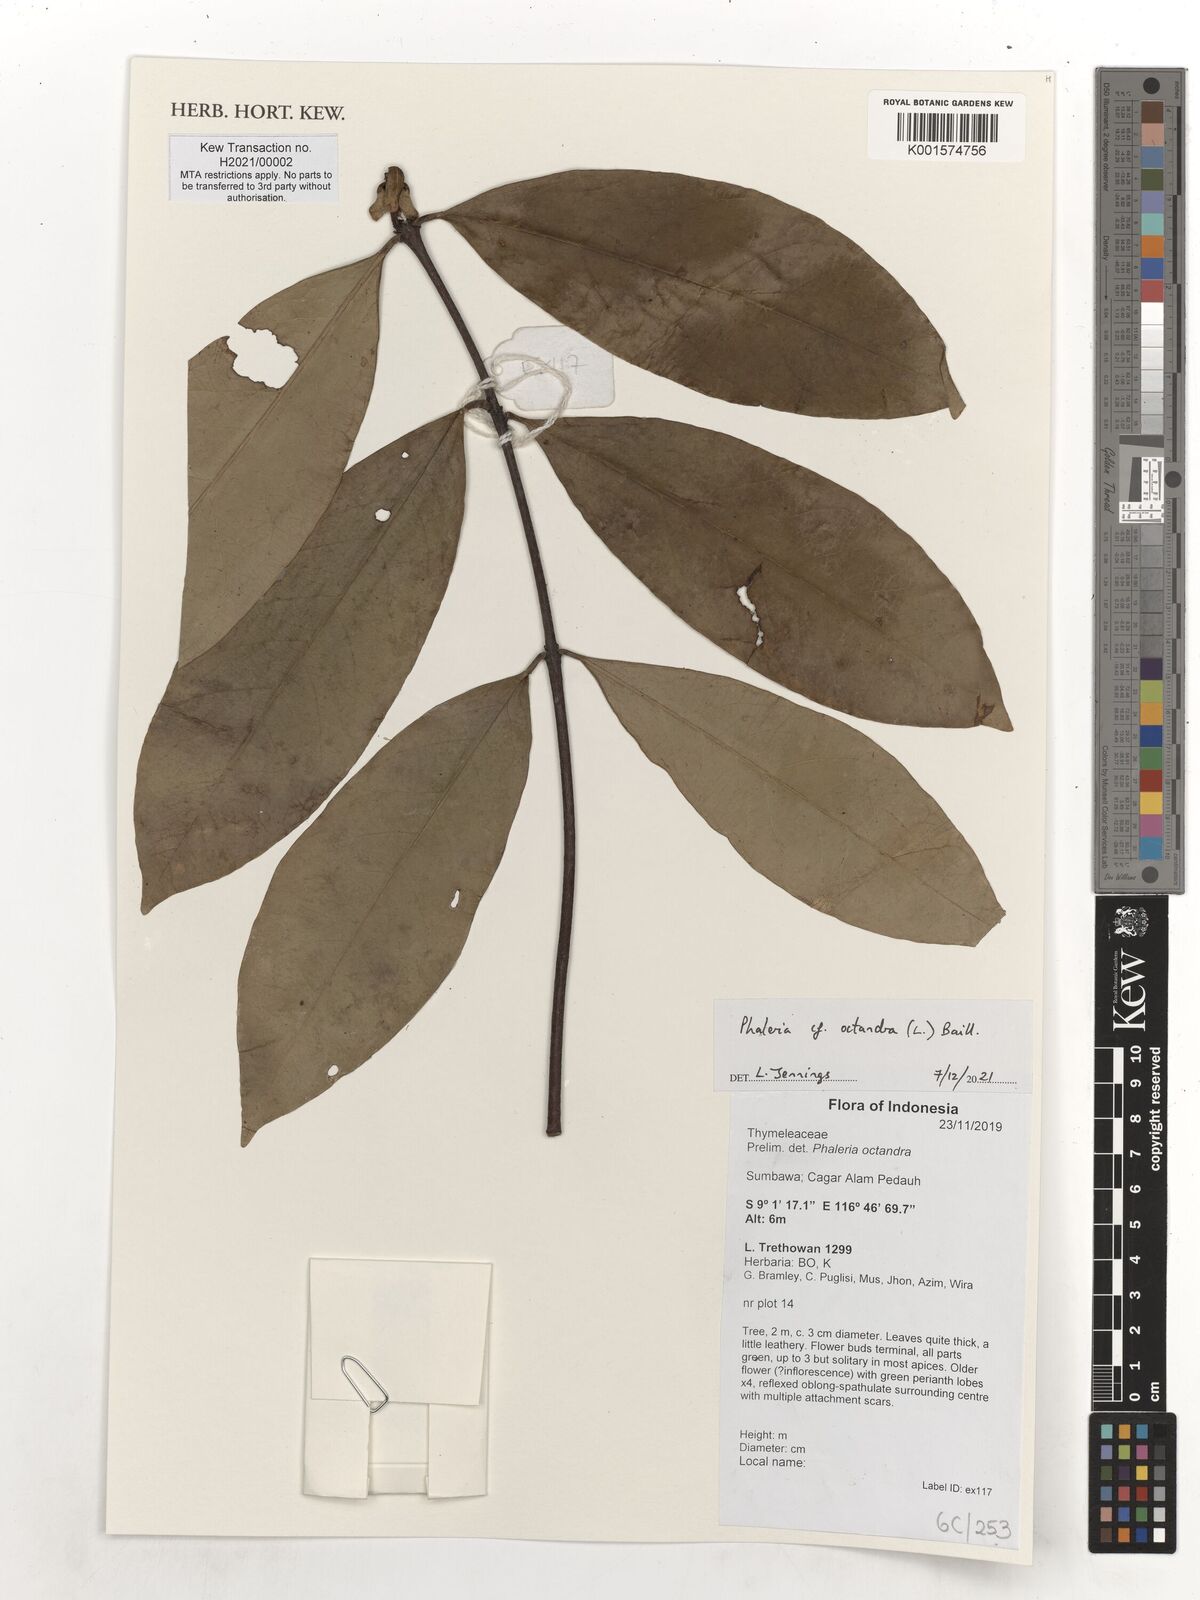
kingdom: Plantae
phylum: Tracheophyta
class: Magnoliopsida
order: Malvales
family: Thymelaeaceae
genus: Phaleria
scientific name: Phaleria octandra
